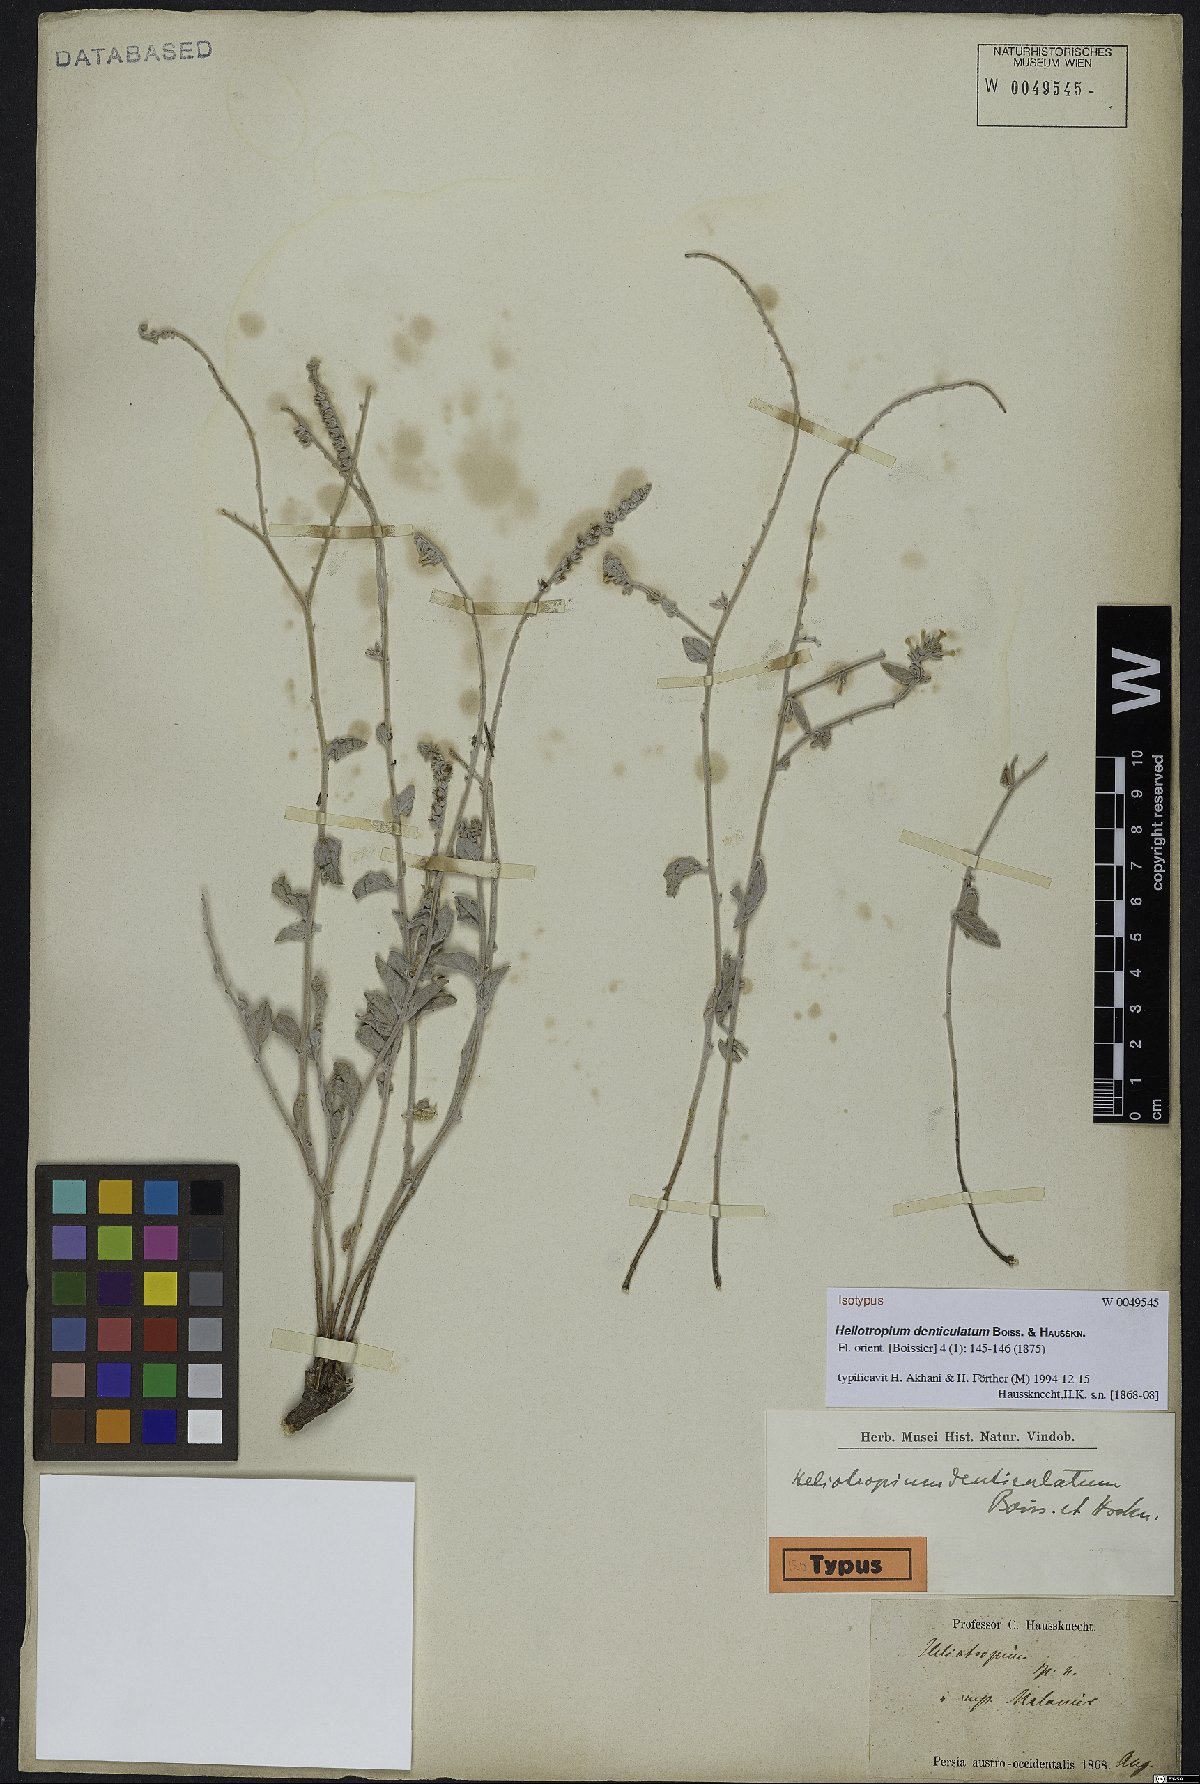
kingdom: Plantae
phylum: Tracheophyta
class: Magnoliopsida
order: Boraginales
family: Heliotropiaceae
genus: Heliotropium
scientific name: Heliotropium denticulatum
